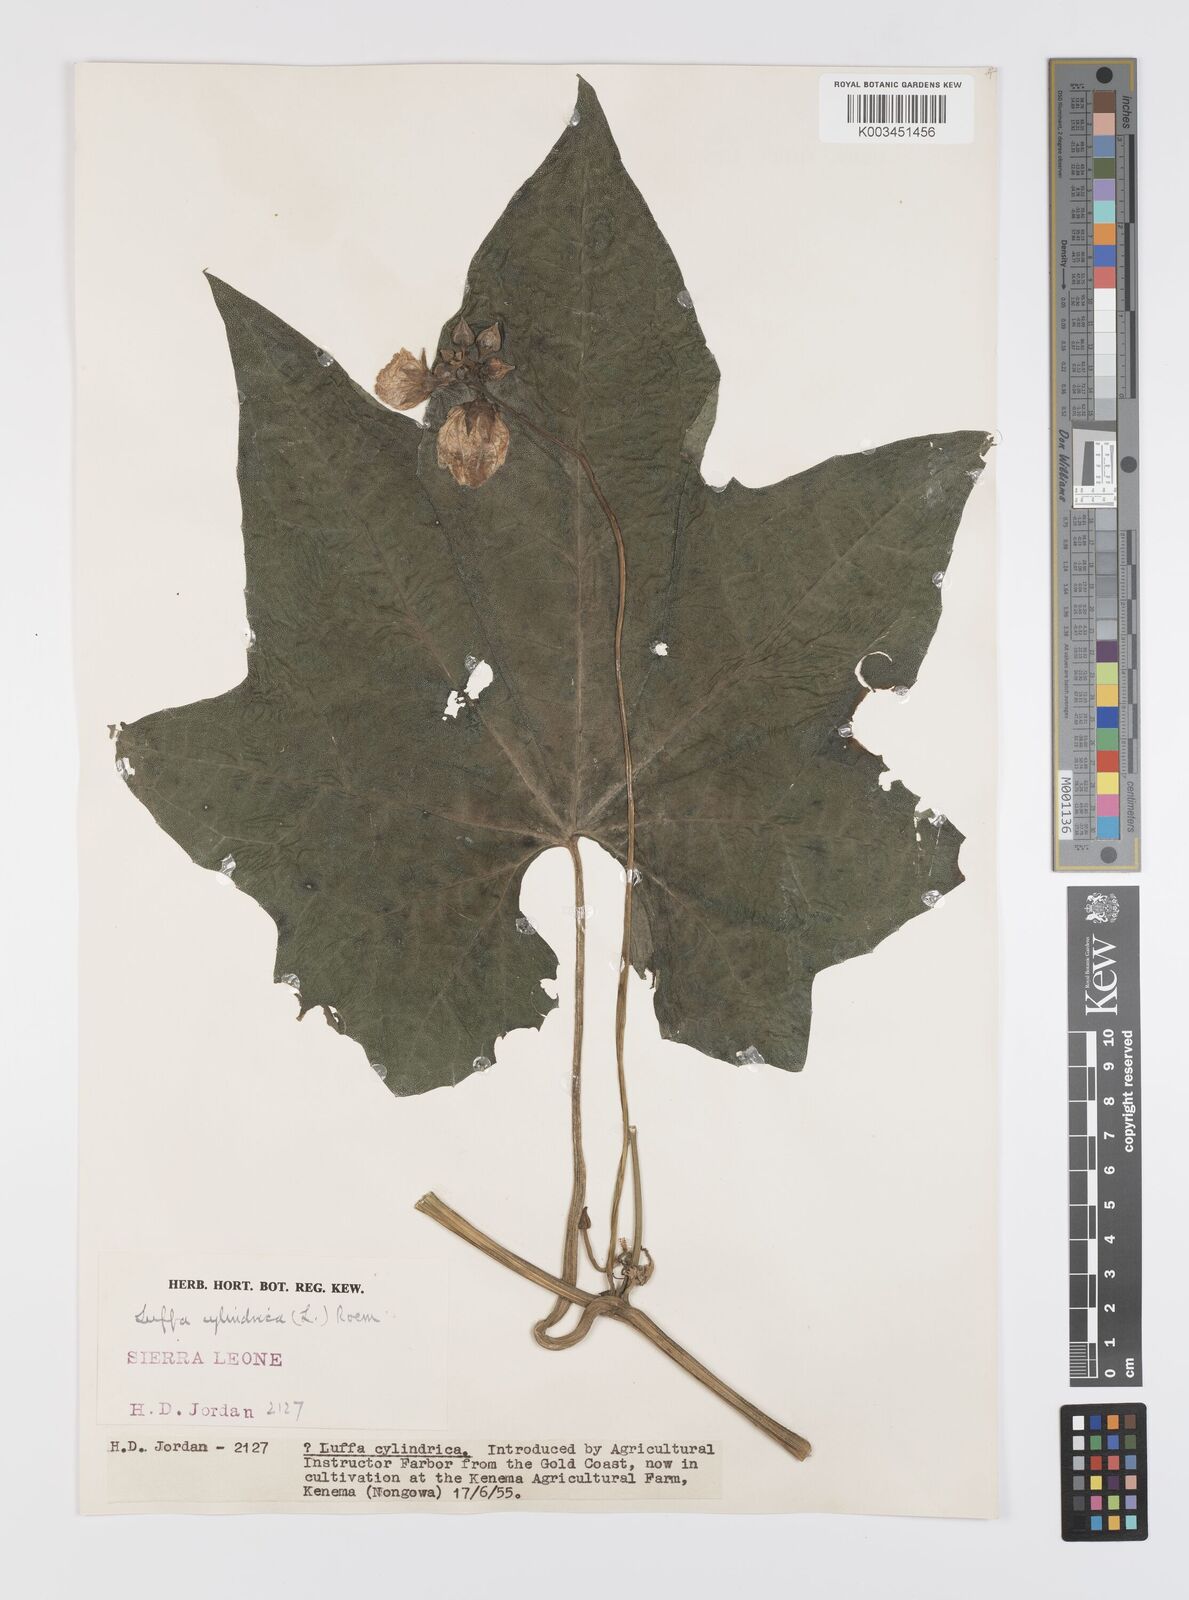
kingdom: Plantae
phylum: Tracheophyta
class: Magnoliopsida
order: Cucurbitales
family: Cucurbitaceae
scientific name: Cucurbitaceae
